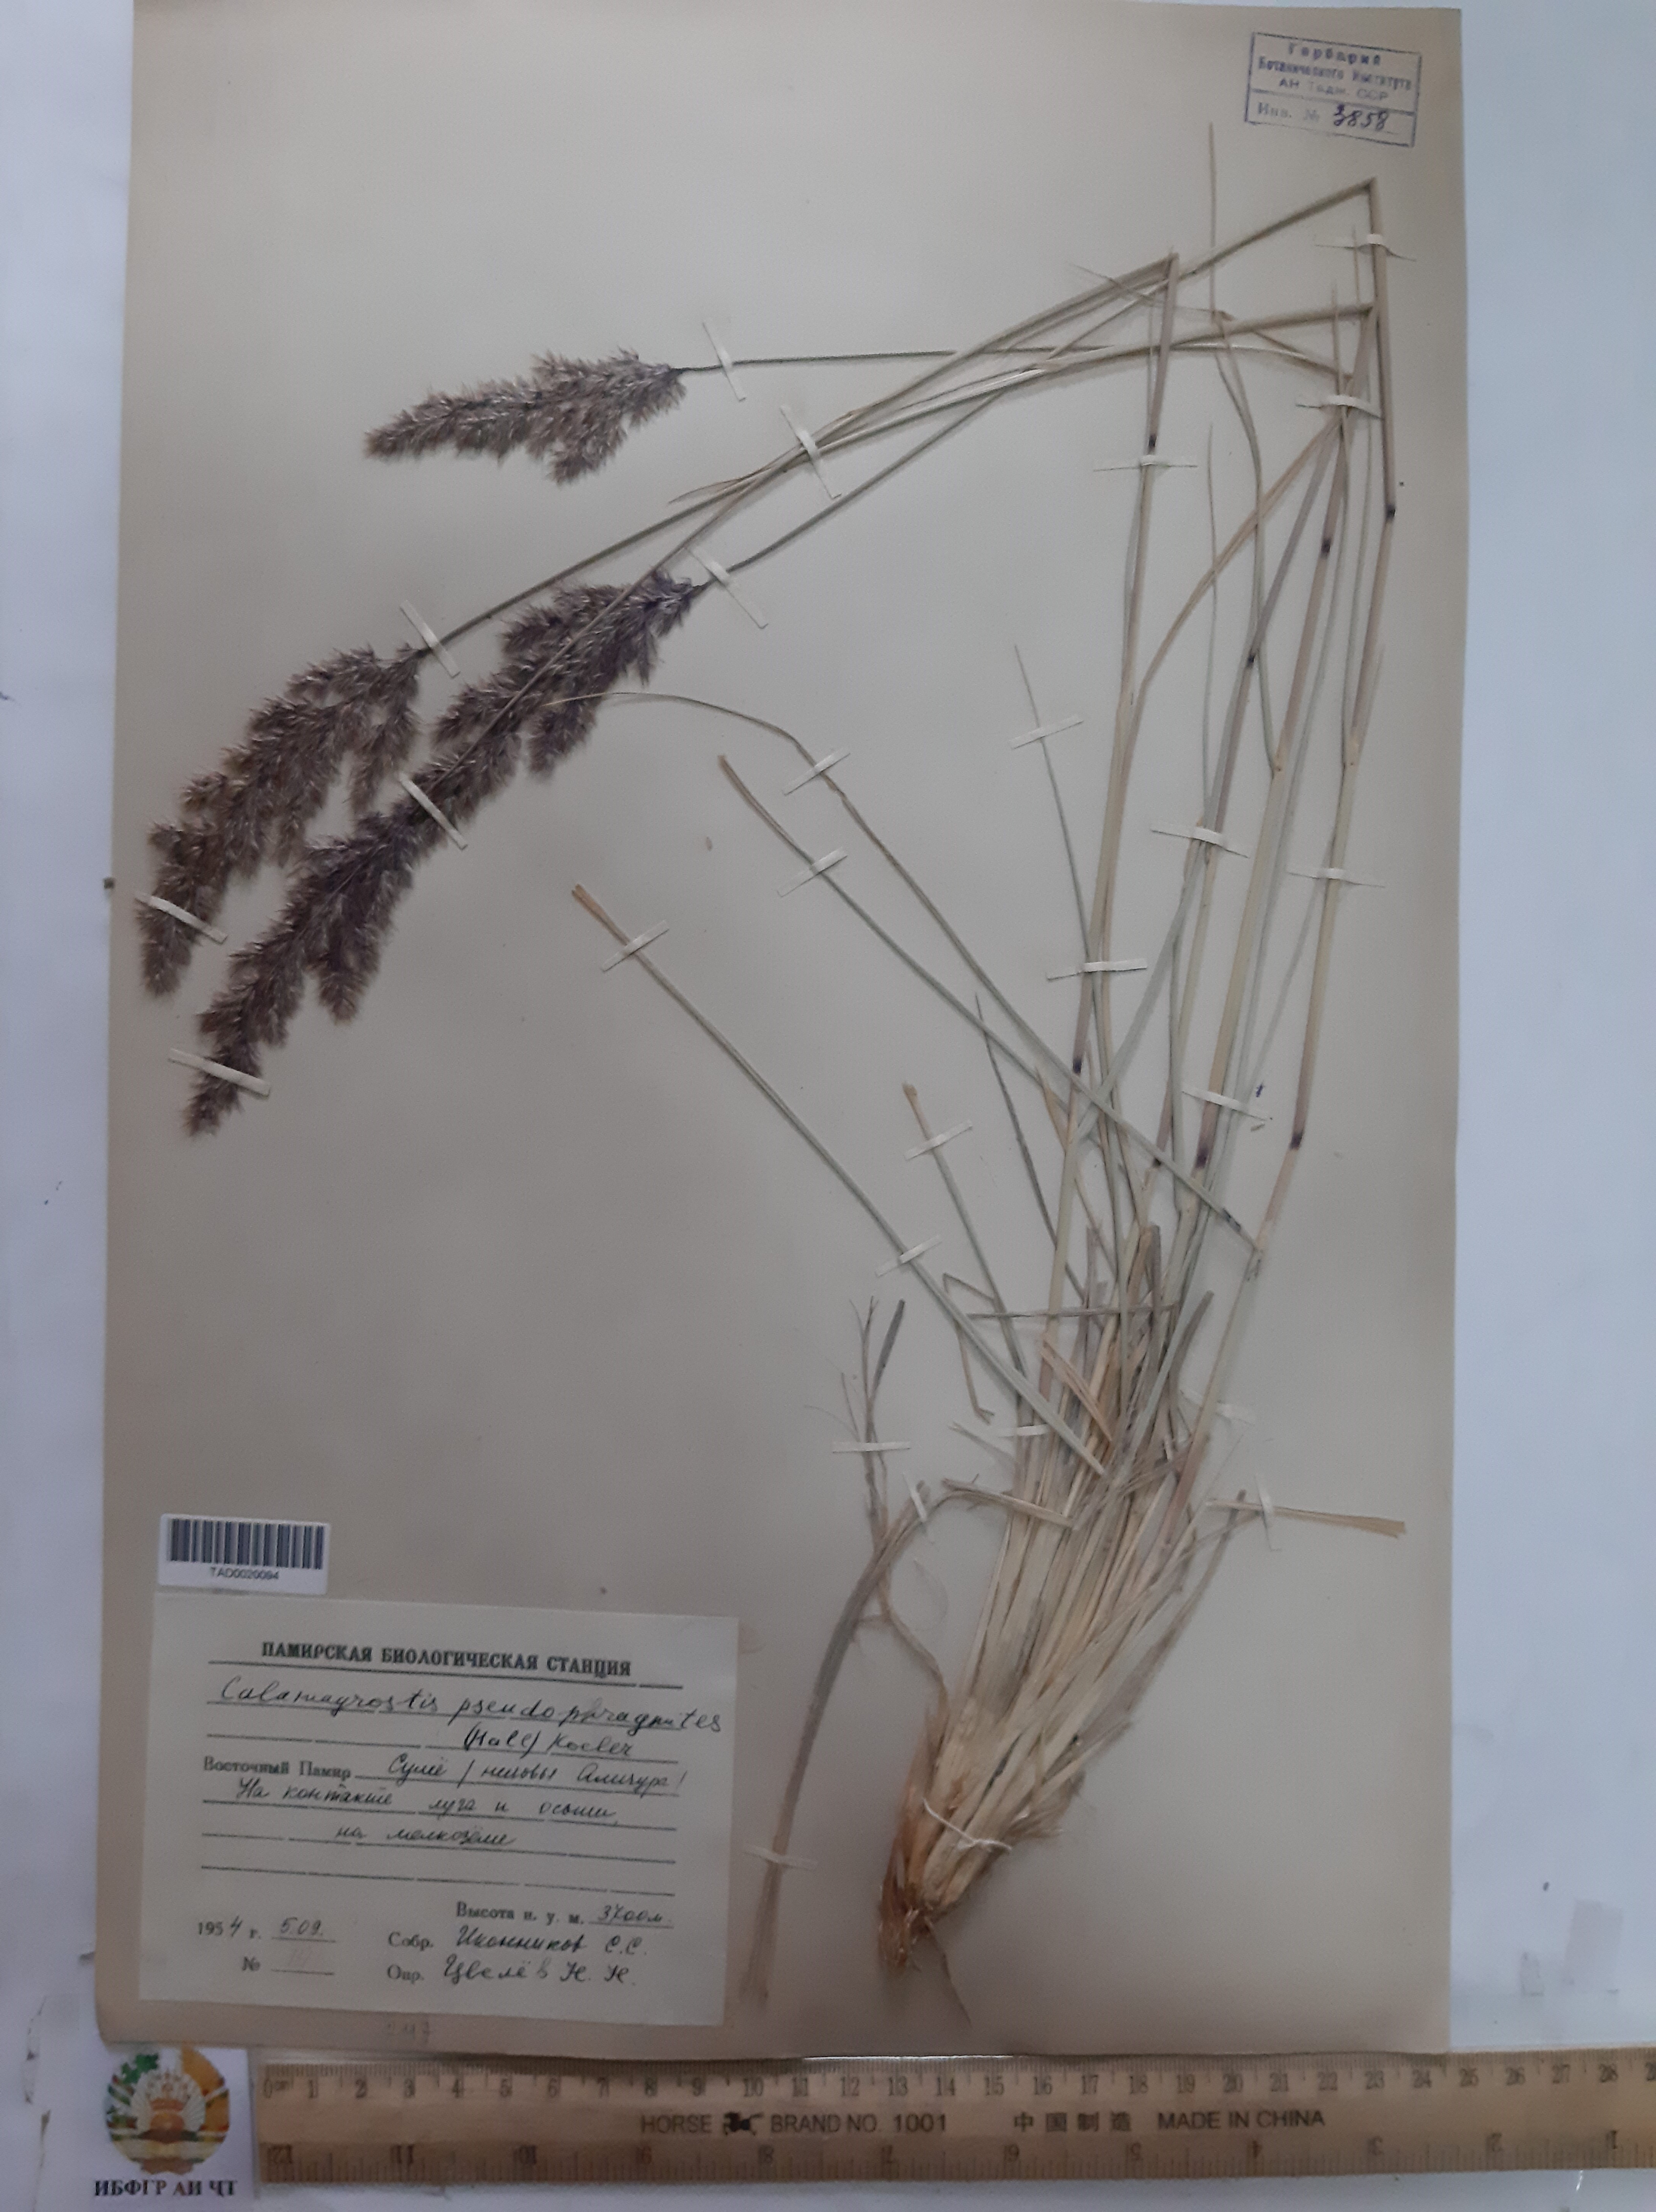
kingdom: Plantae
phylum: Tracheophyta
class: Liliopsida
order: Poales
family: Poaceae
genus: Calamagrostis
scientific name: Calamagrostis pseudophragmites
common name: Coastal small-reed
